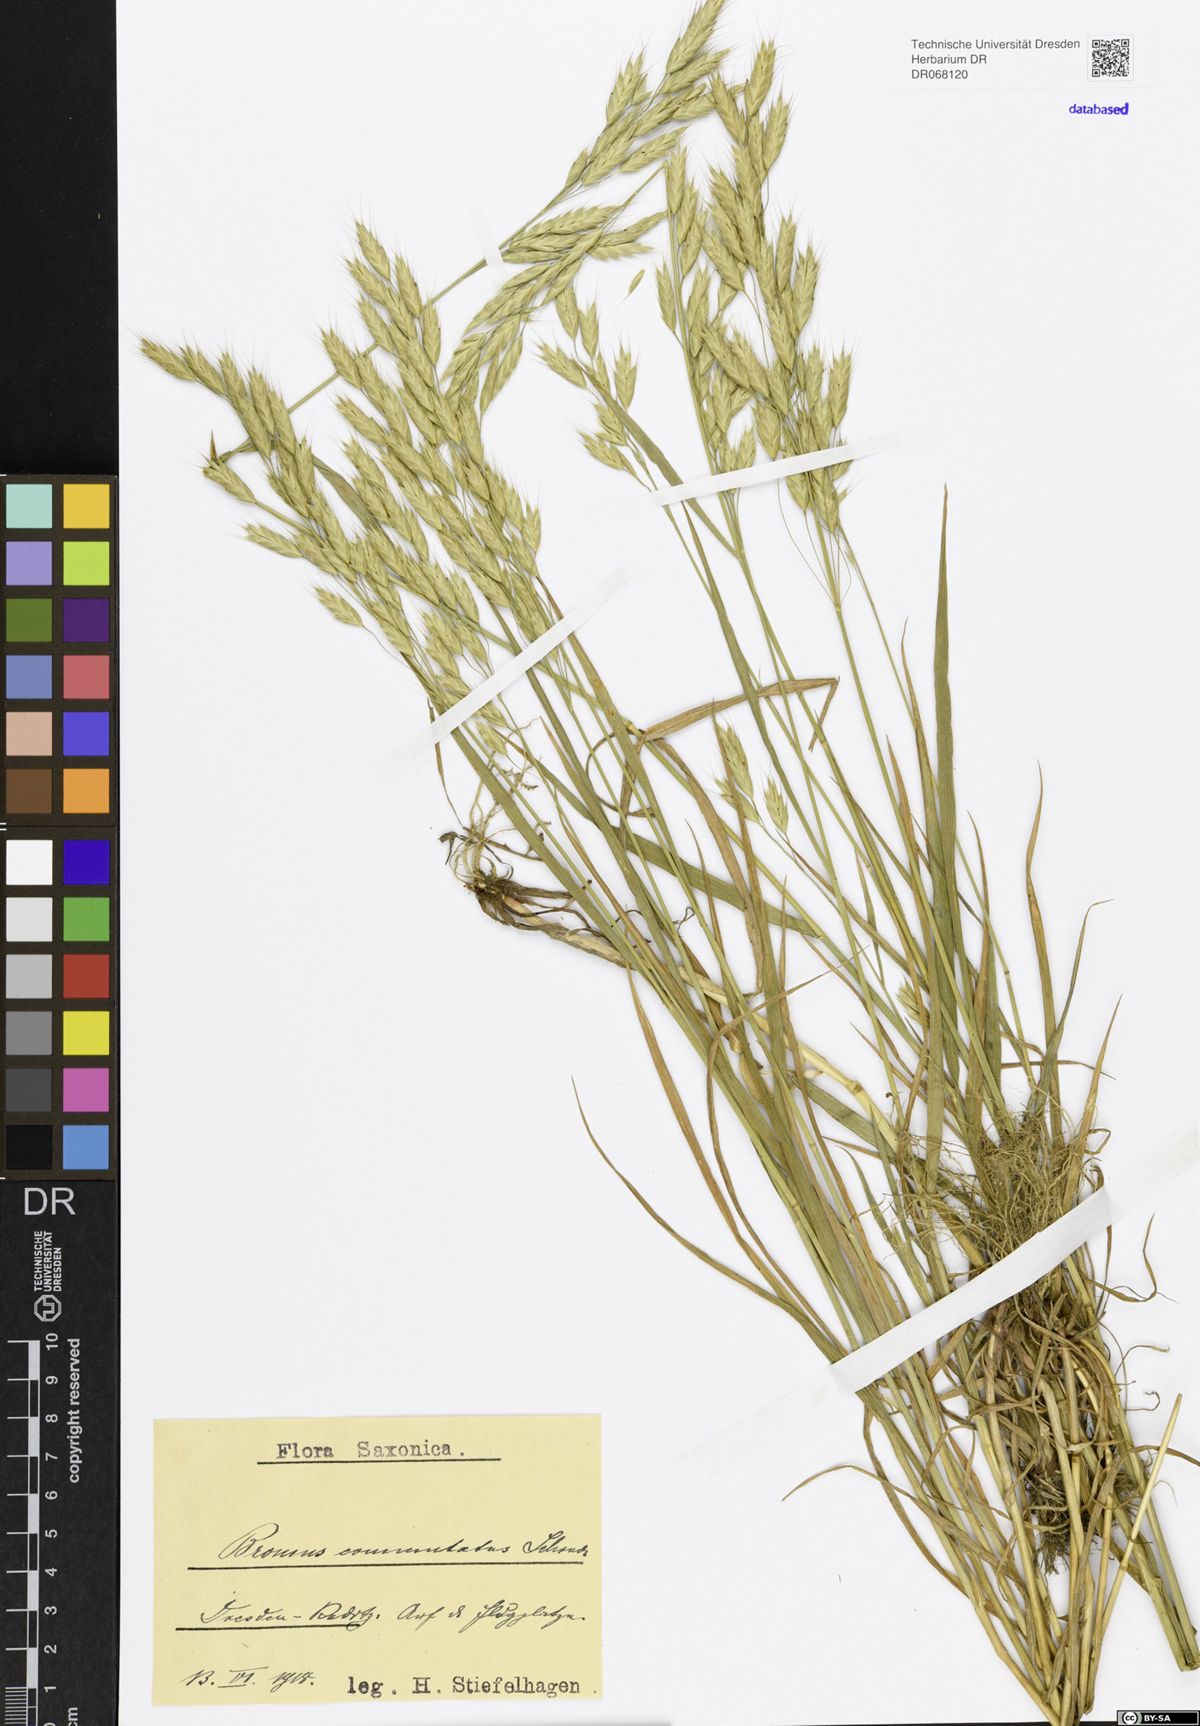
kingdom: Plantae
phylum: Tracheophyta
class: Liliopsida
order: Poales
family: Poaceae
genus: Bromus
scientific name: Bromus commutatus
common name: Meadow brome
